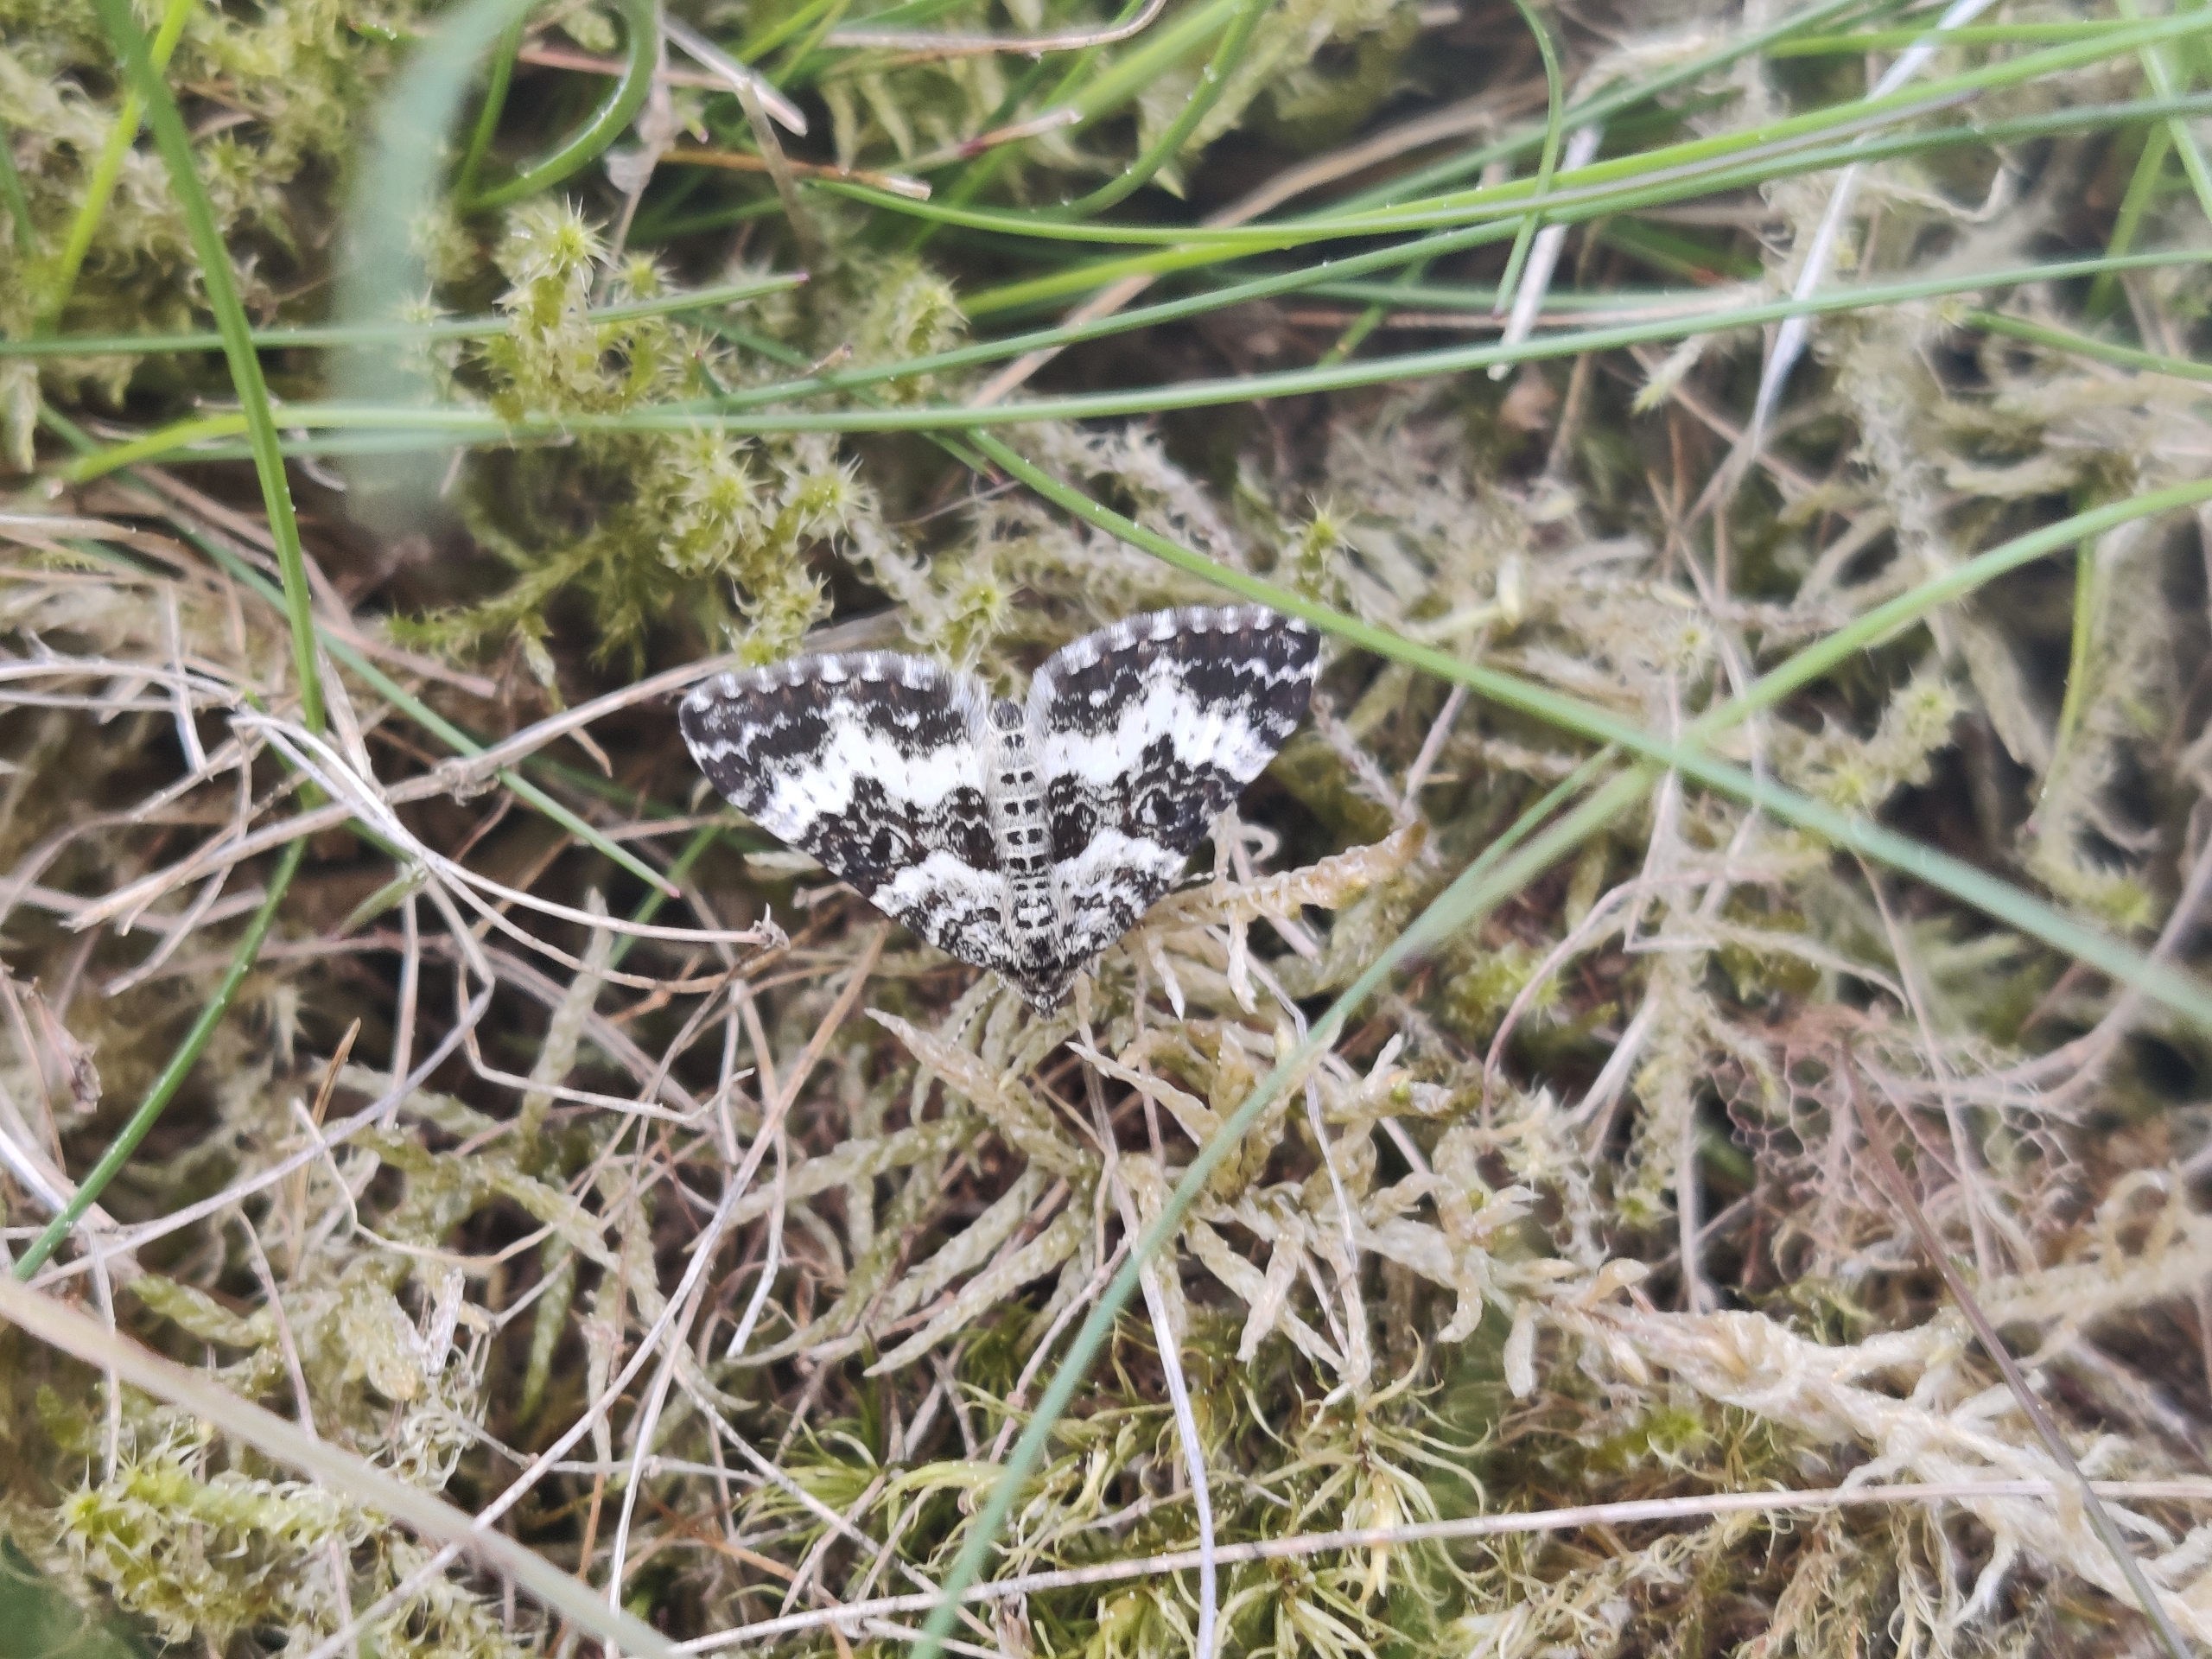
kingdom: Animalia
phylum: Arthropoda
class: Insecta
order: Lepidoptera
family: Geometridae
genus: Epirrhoe
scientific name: Epirrhoe rivata
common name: Hvidbåndet bladmåler
